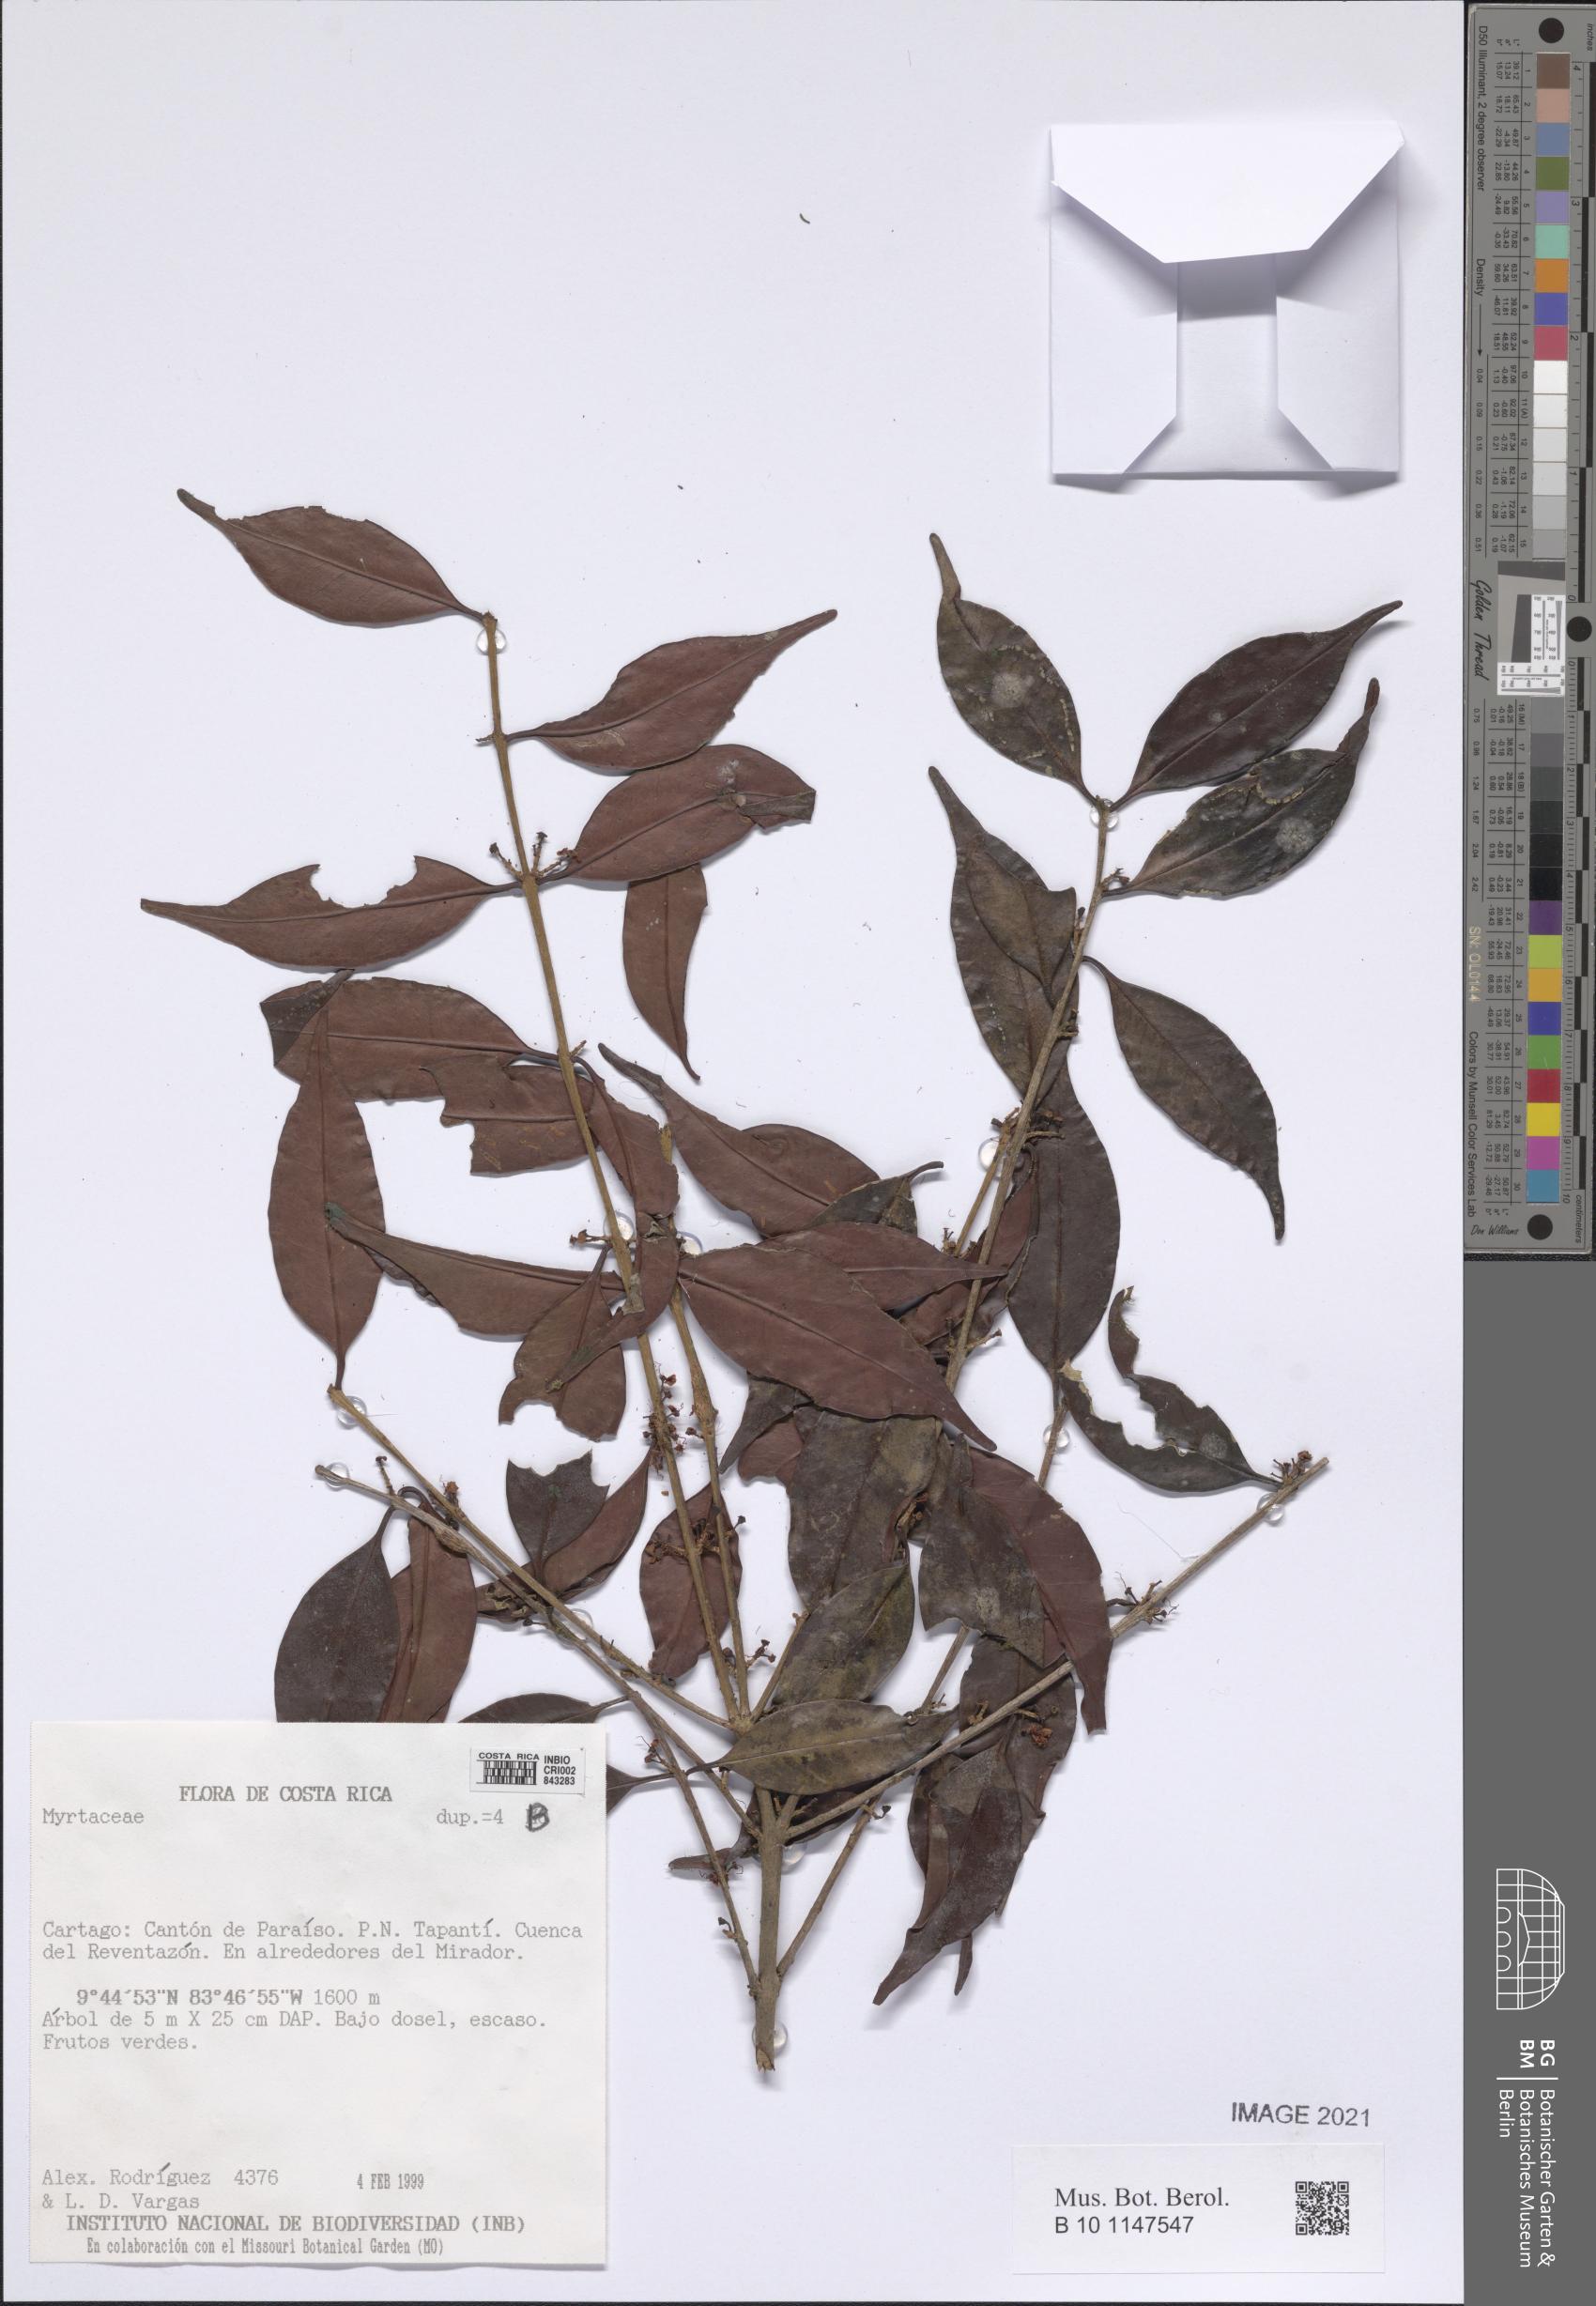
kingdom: Plantae
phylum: Tracheophyta
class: Magnoliopsida
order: Myrtales
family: Myrtaceae
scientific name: Myrtaceae
